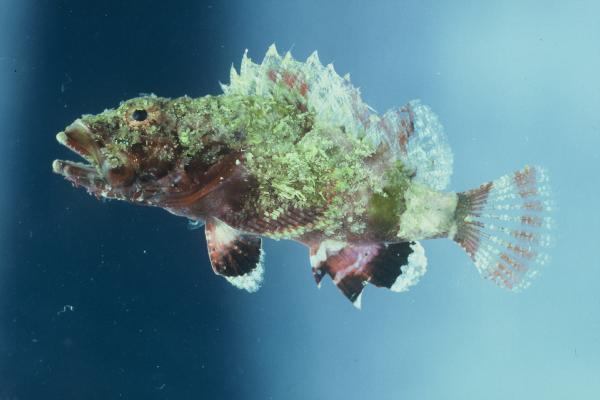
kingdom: Animalia
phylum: Chordata
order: Scorpaeniformes
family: Scorpaenidae
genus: Scorpaenopsis
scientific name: Scorpaenopsis diabolus
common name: False stonefish
